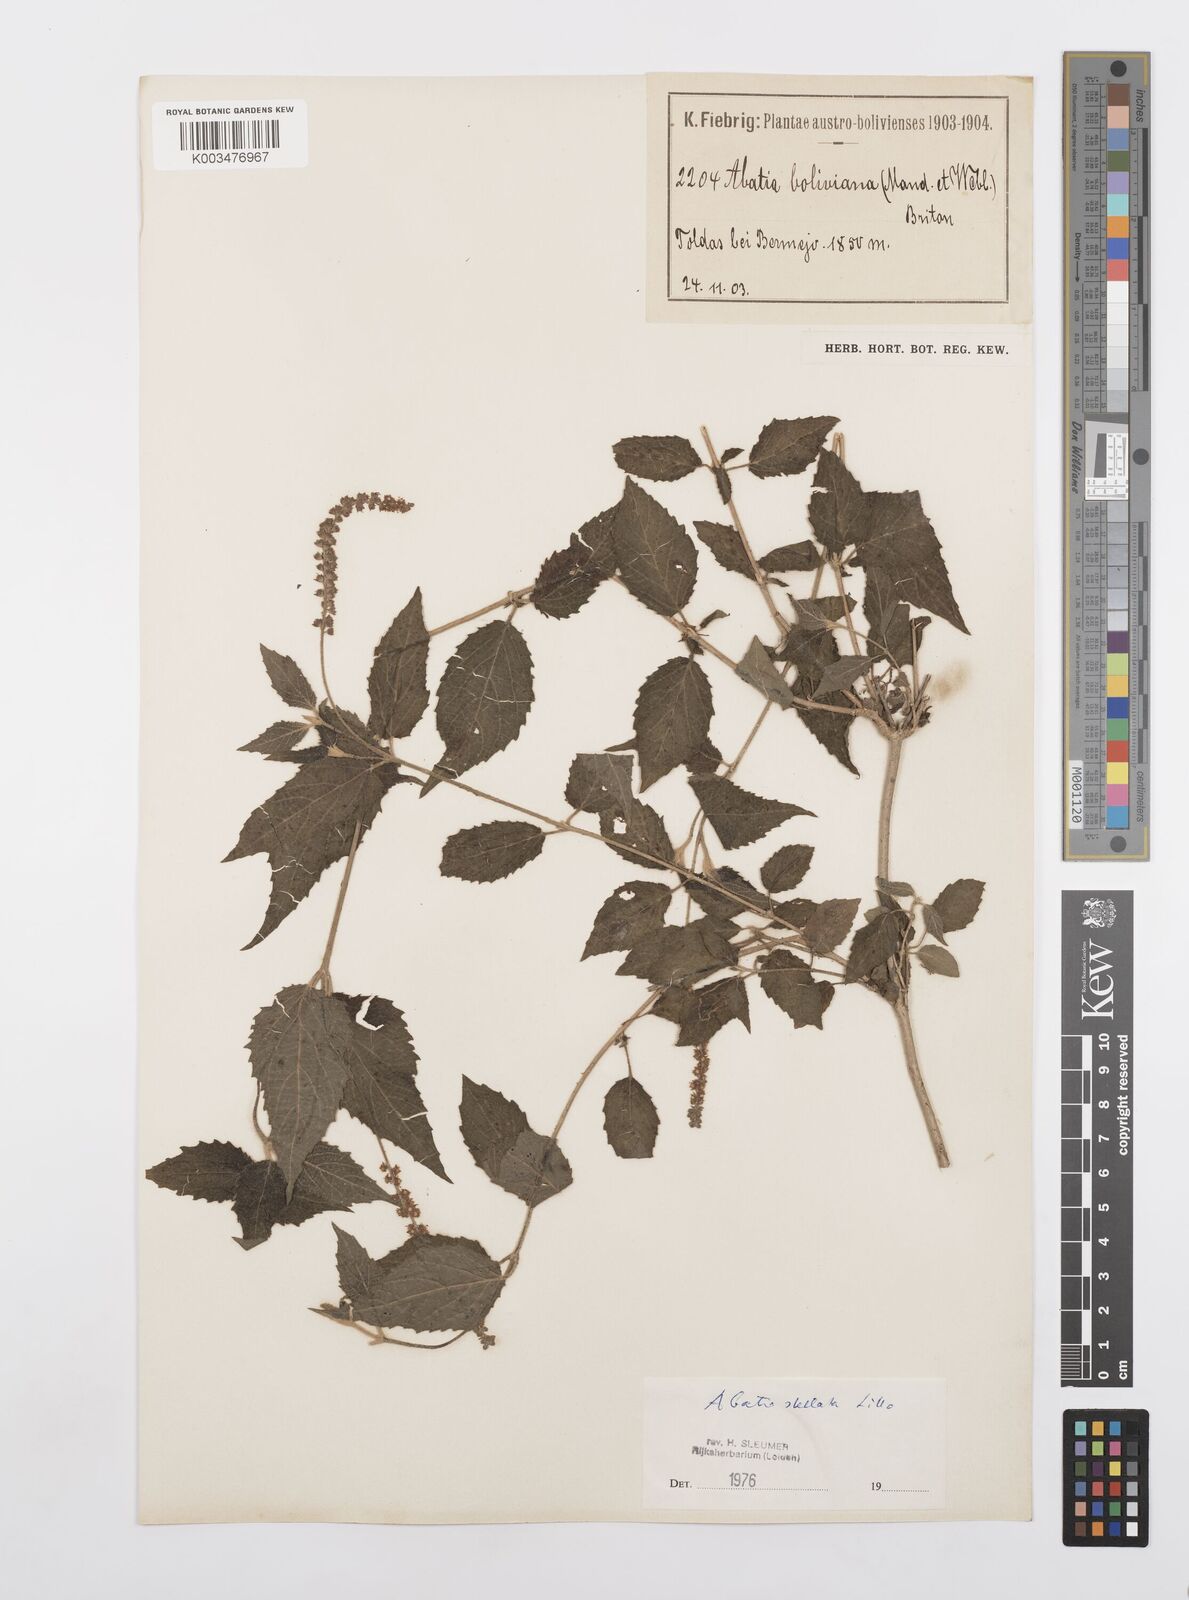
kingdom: Plantae
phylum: Tracheophyta
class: Magnoliopsida
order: Malpighiales
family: Salicaceae
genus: Abatia
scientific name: Abatia stellata
